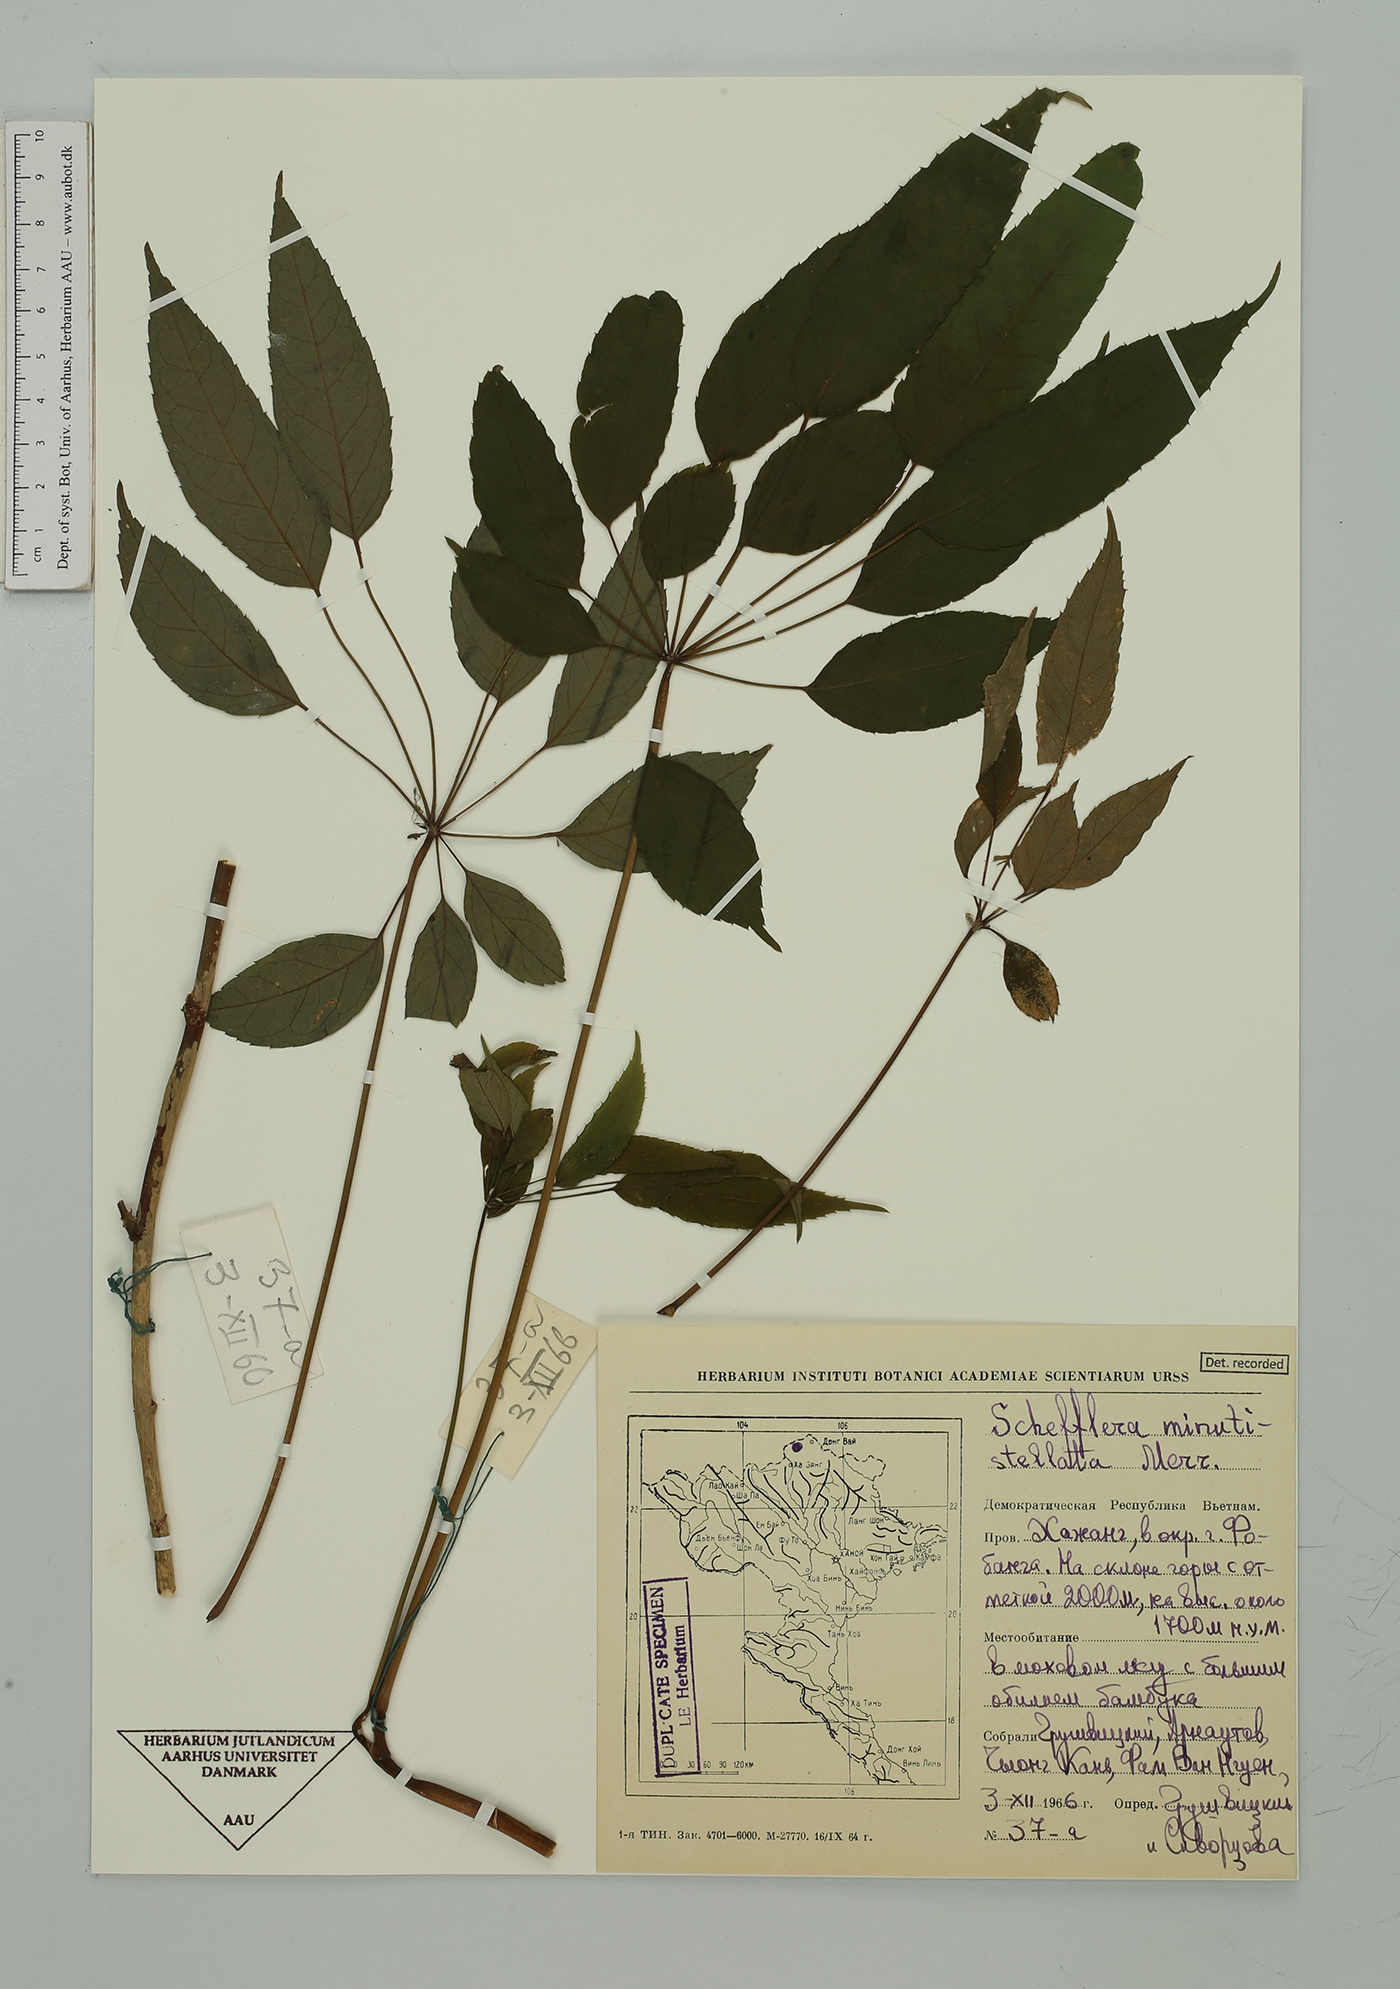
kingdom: Plantae
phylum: Tracheophyta
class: Magnoliopsida
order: Apiales
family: Araliaceae
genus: Heptapleurum
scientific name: Heptapleurum minutistellatum
